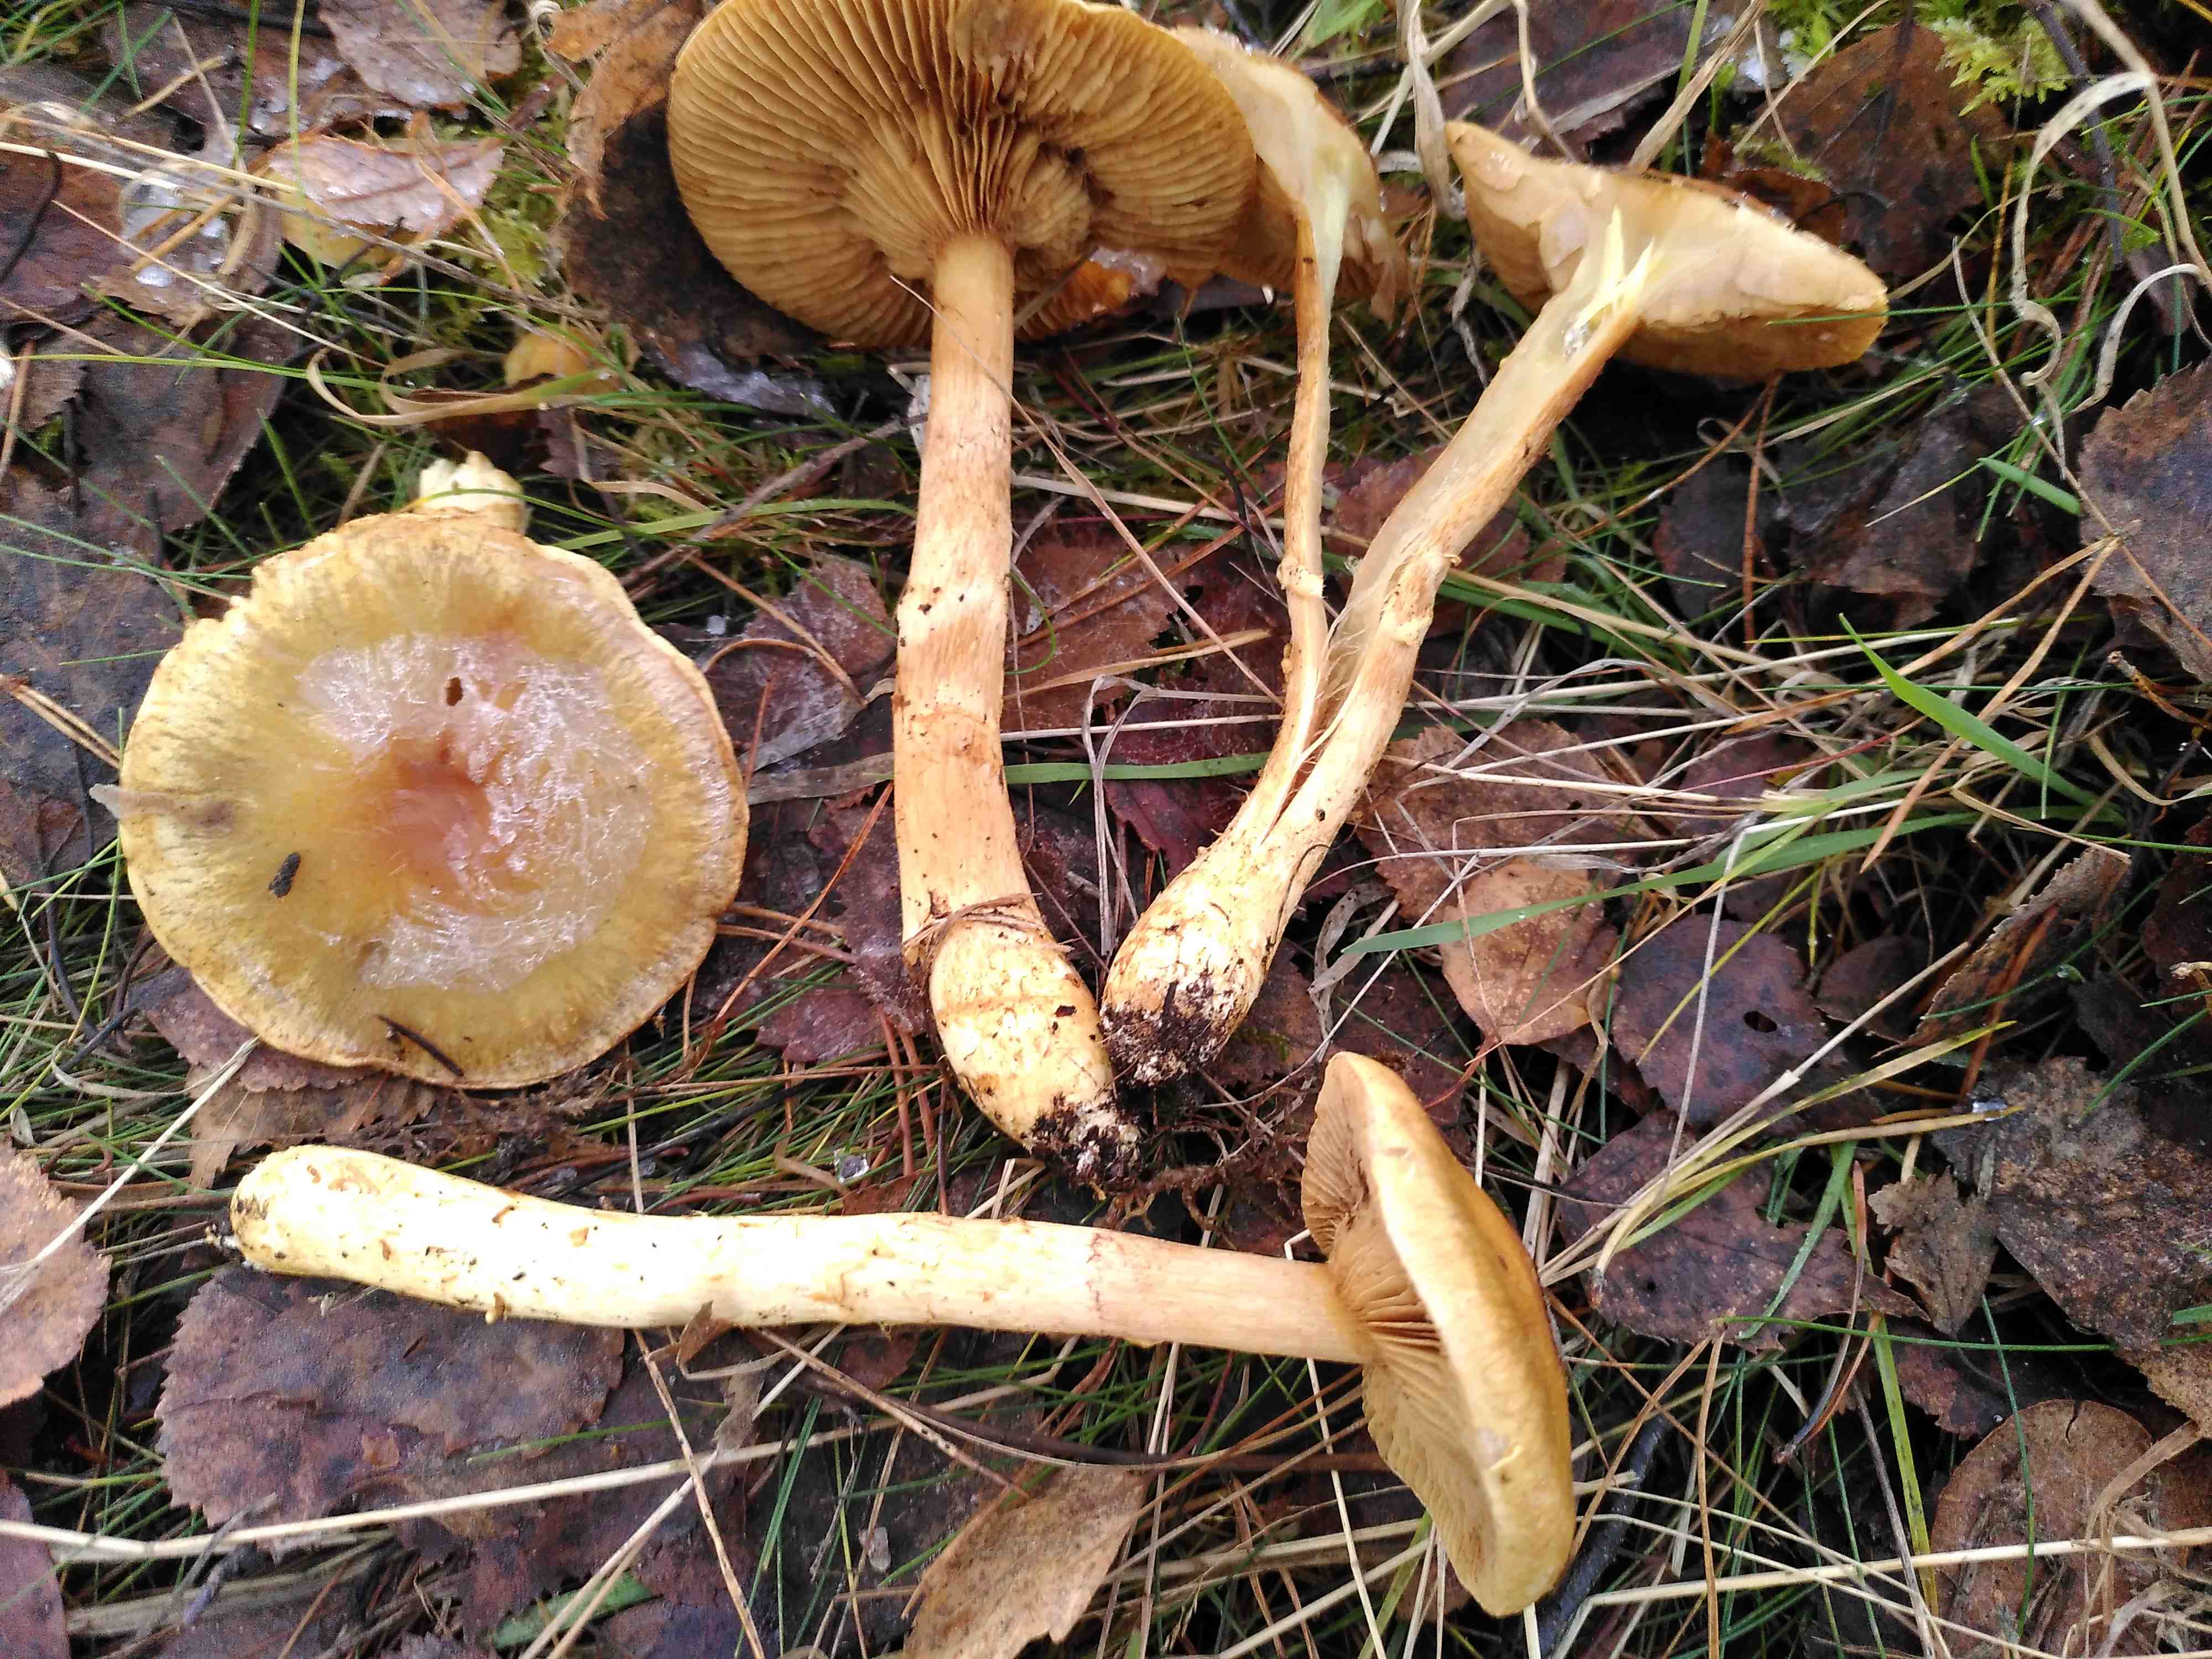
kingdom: Fungi
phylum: Basidiomycota
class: Agaricomycetes
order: Agaricales
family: Cortinariaceae
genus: Cortinarius
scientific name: Cortinarius
